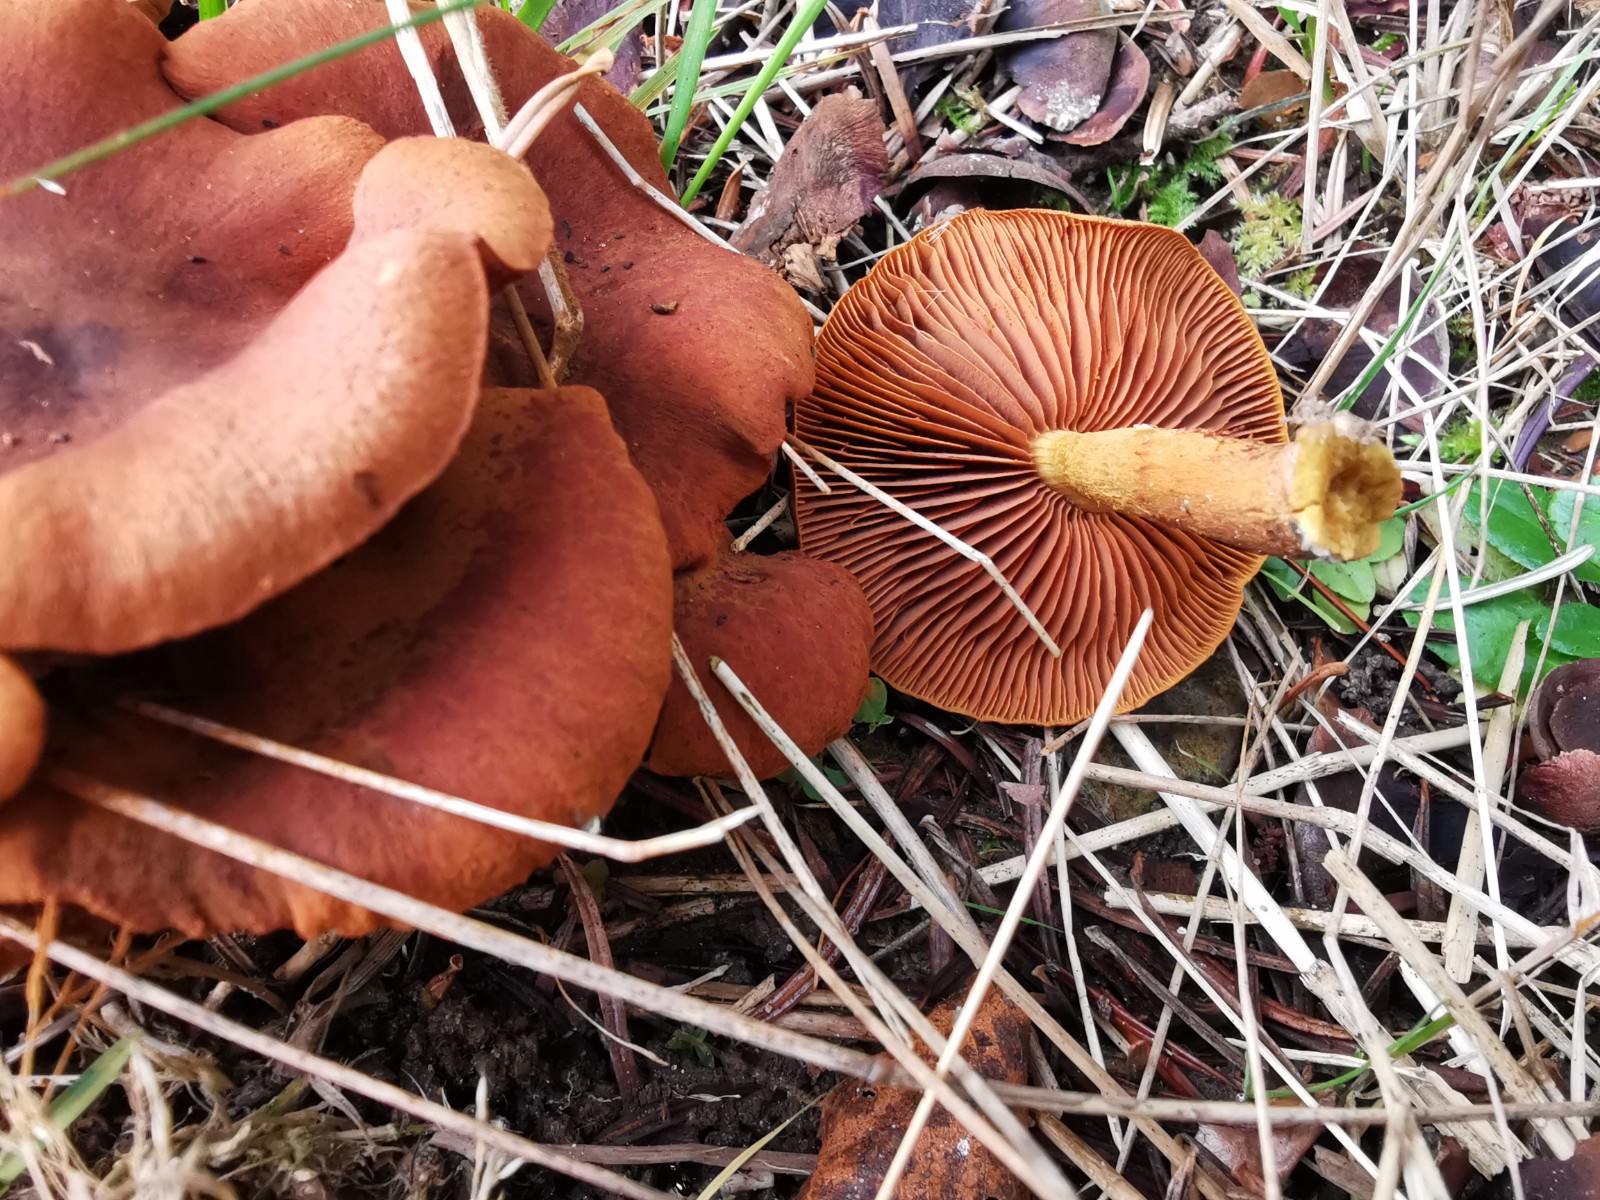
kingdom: Fungi
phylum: Basidiomycota
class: Agaricomycetes
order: Agaricales
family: Cortinariaceae
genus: Cortinarius
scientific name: Cortinarius
